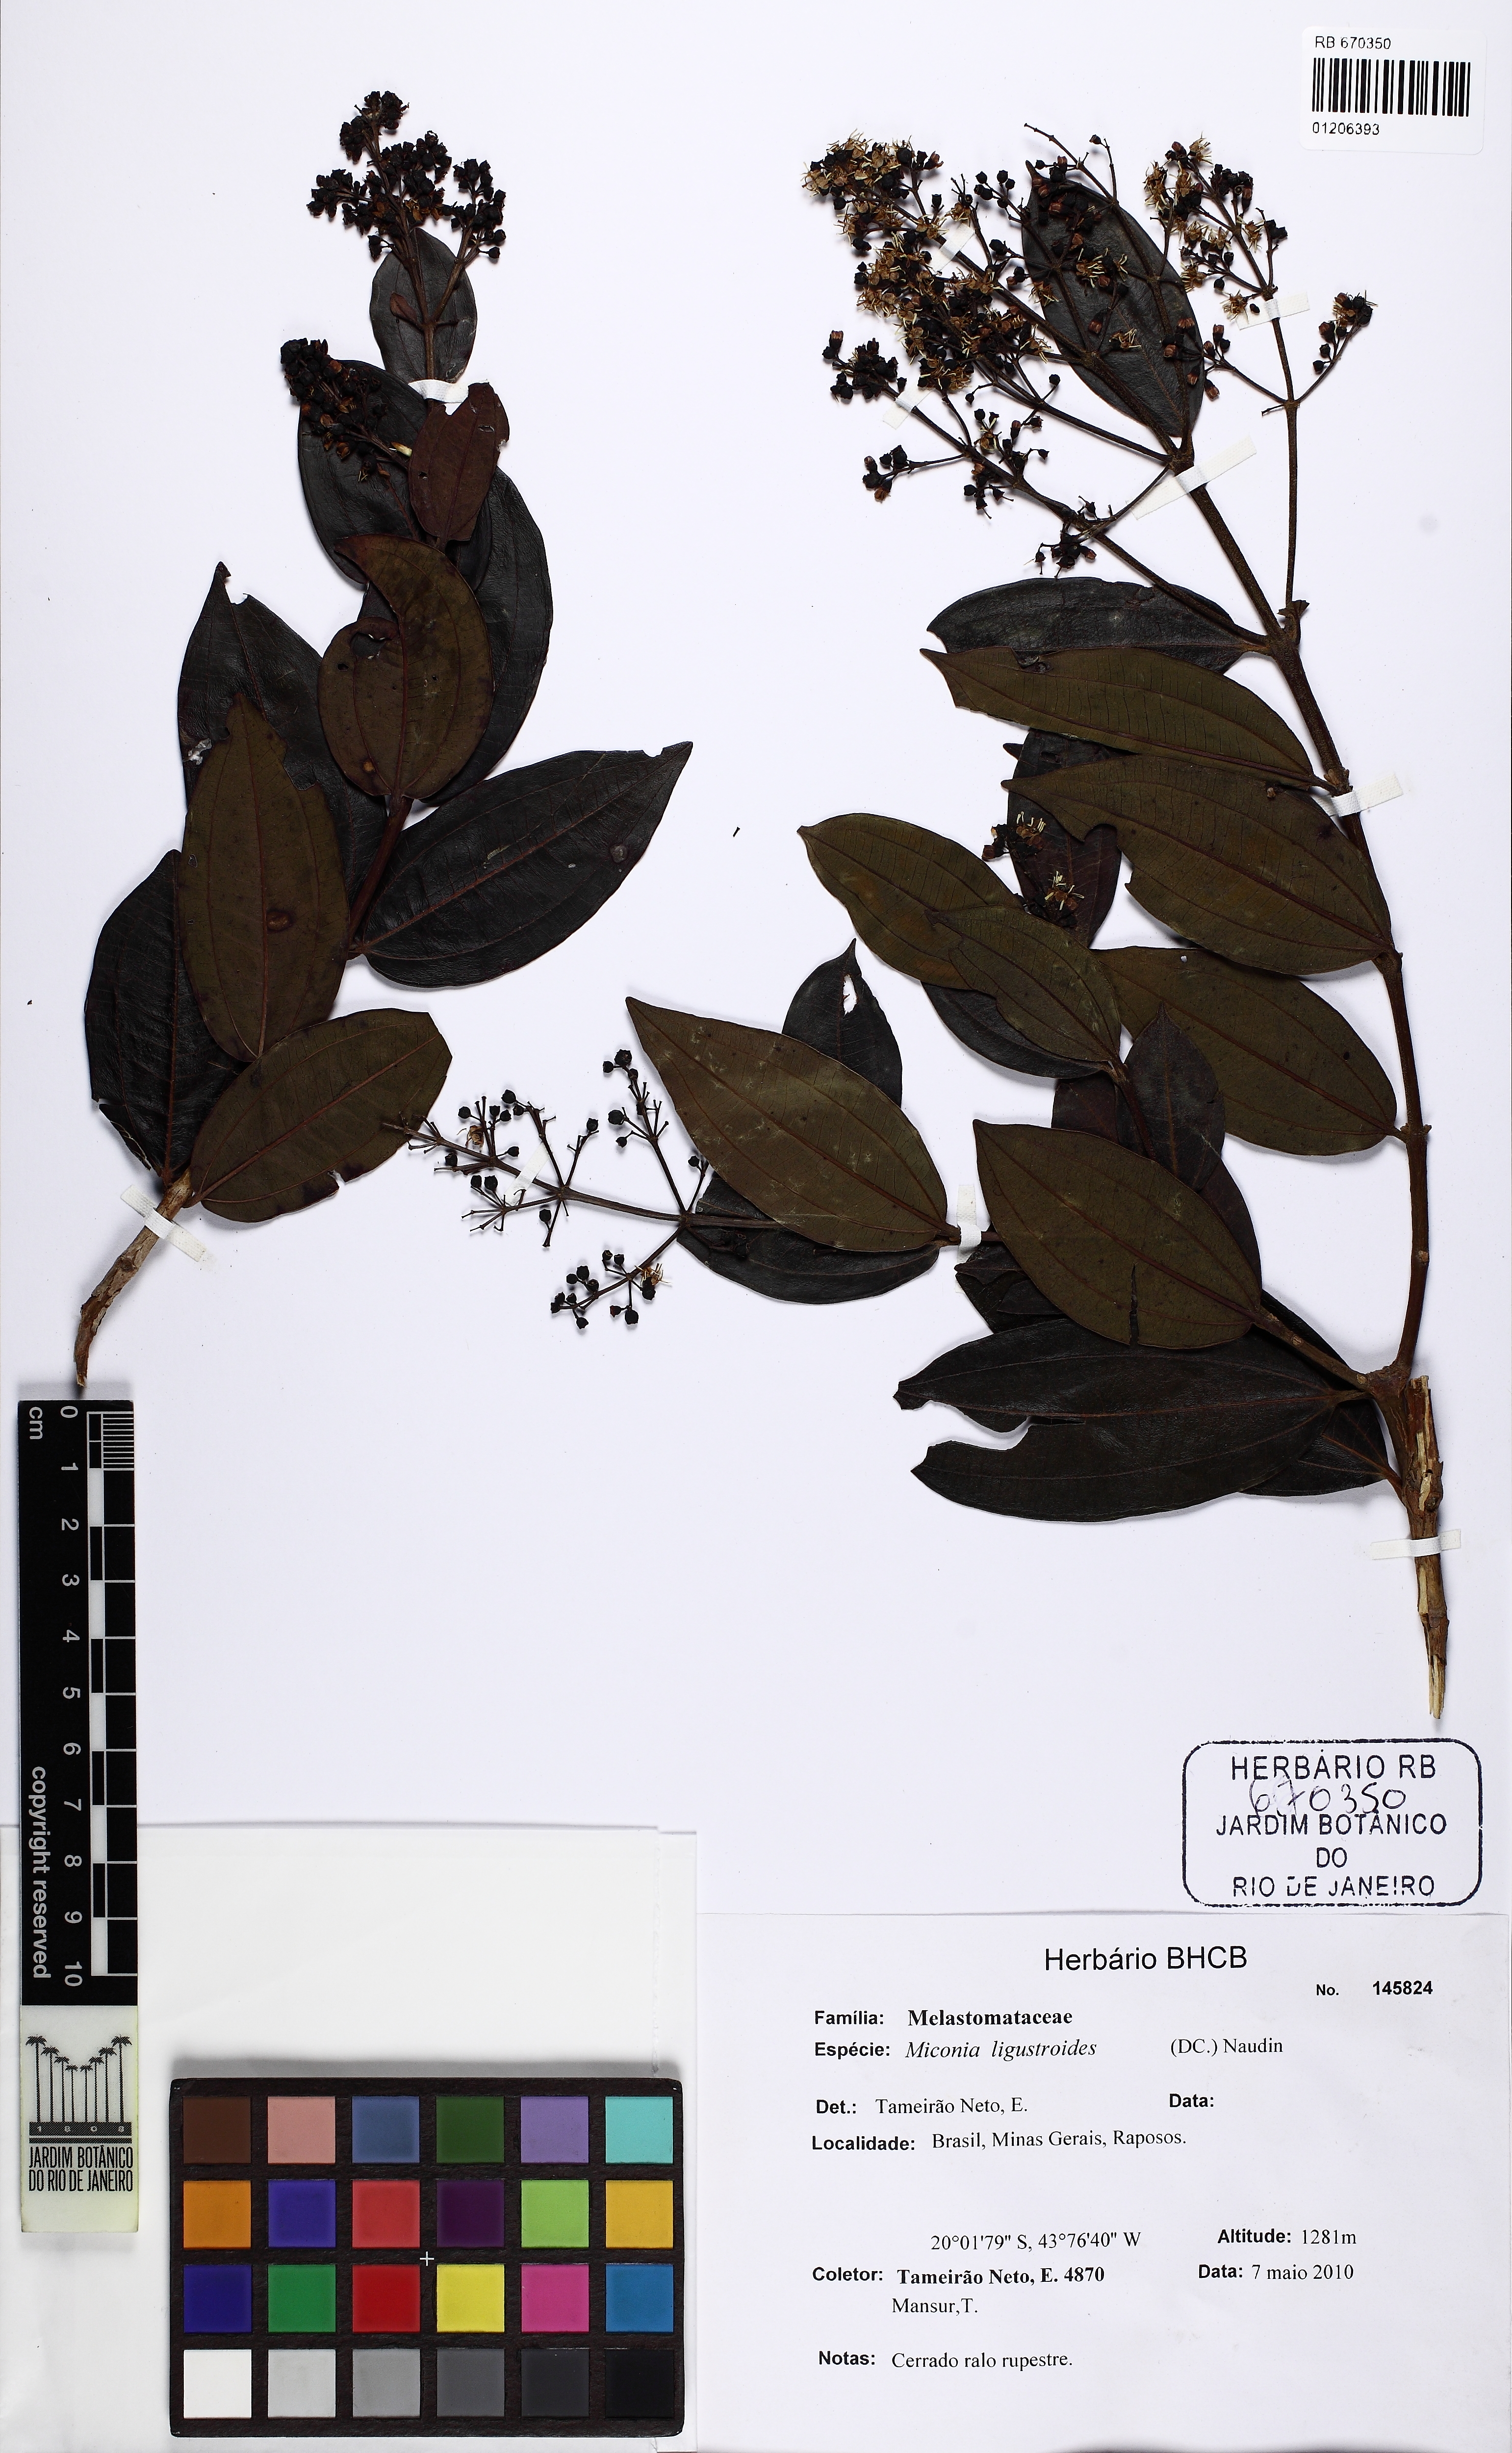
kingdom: Plantae
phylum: Tracheophyta
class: Magnoliopsida
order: Myrtales
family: Melastomataceae
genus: Miconia
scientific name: Miconia ligustroides
